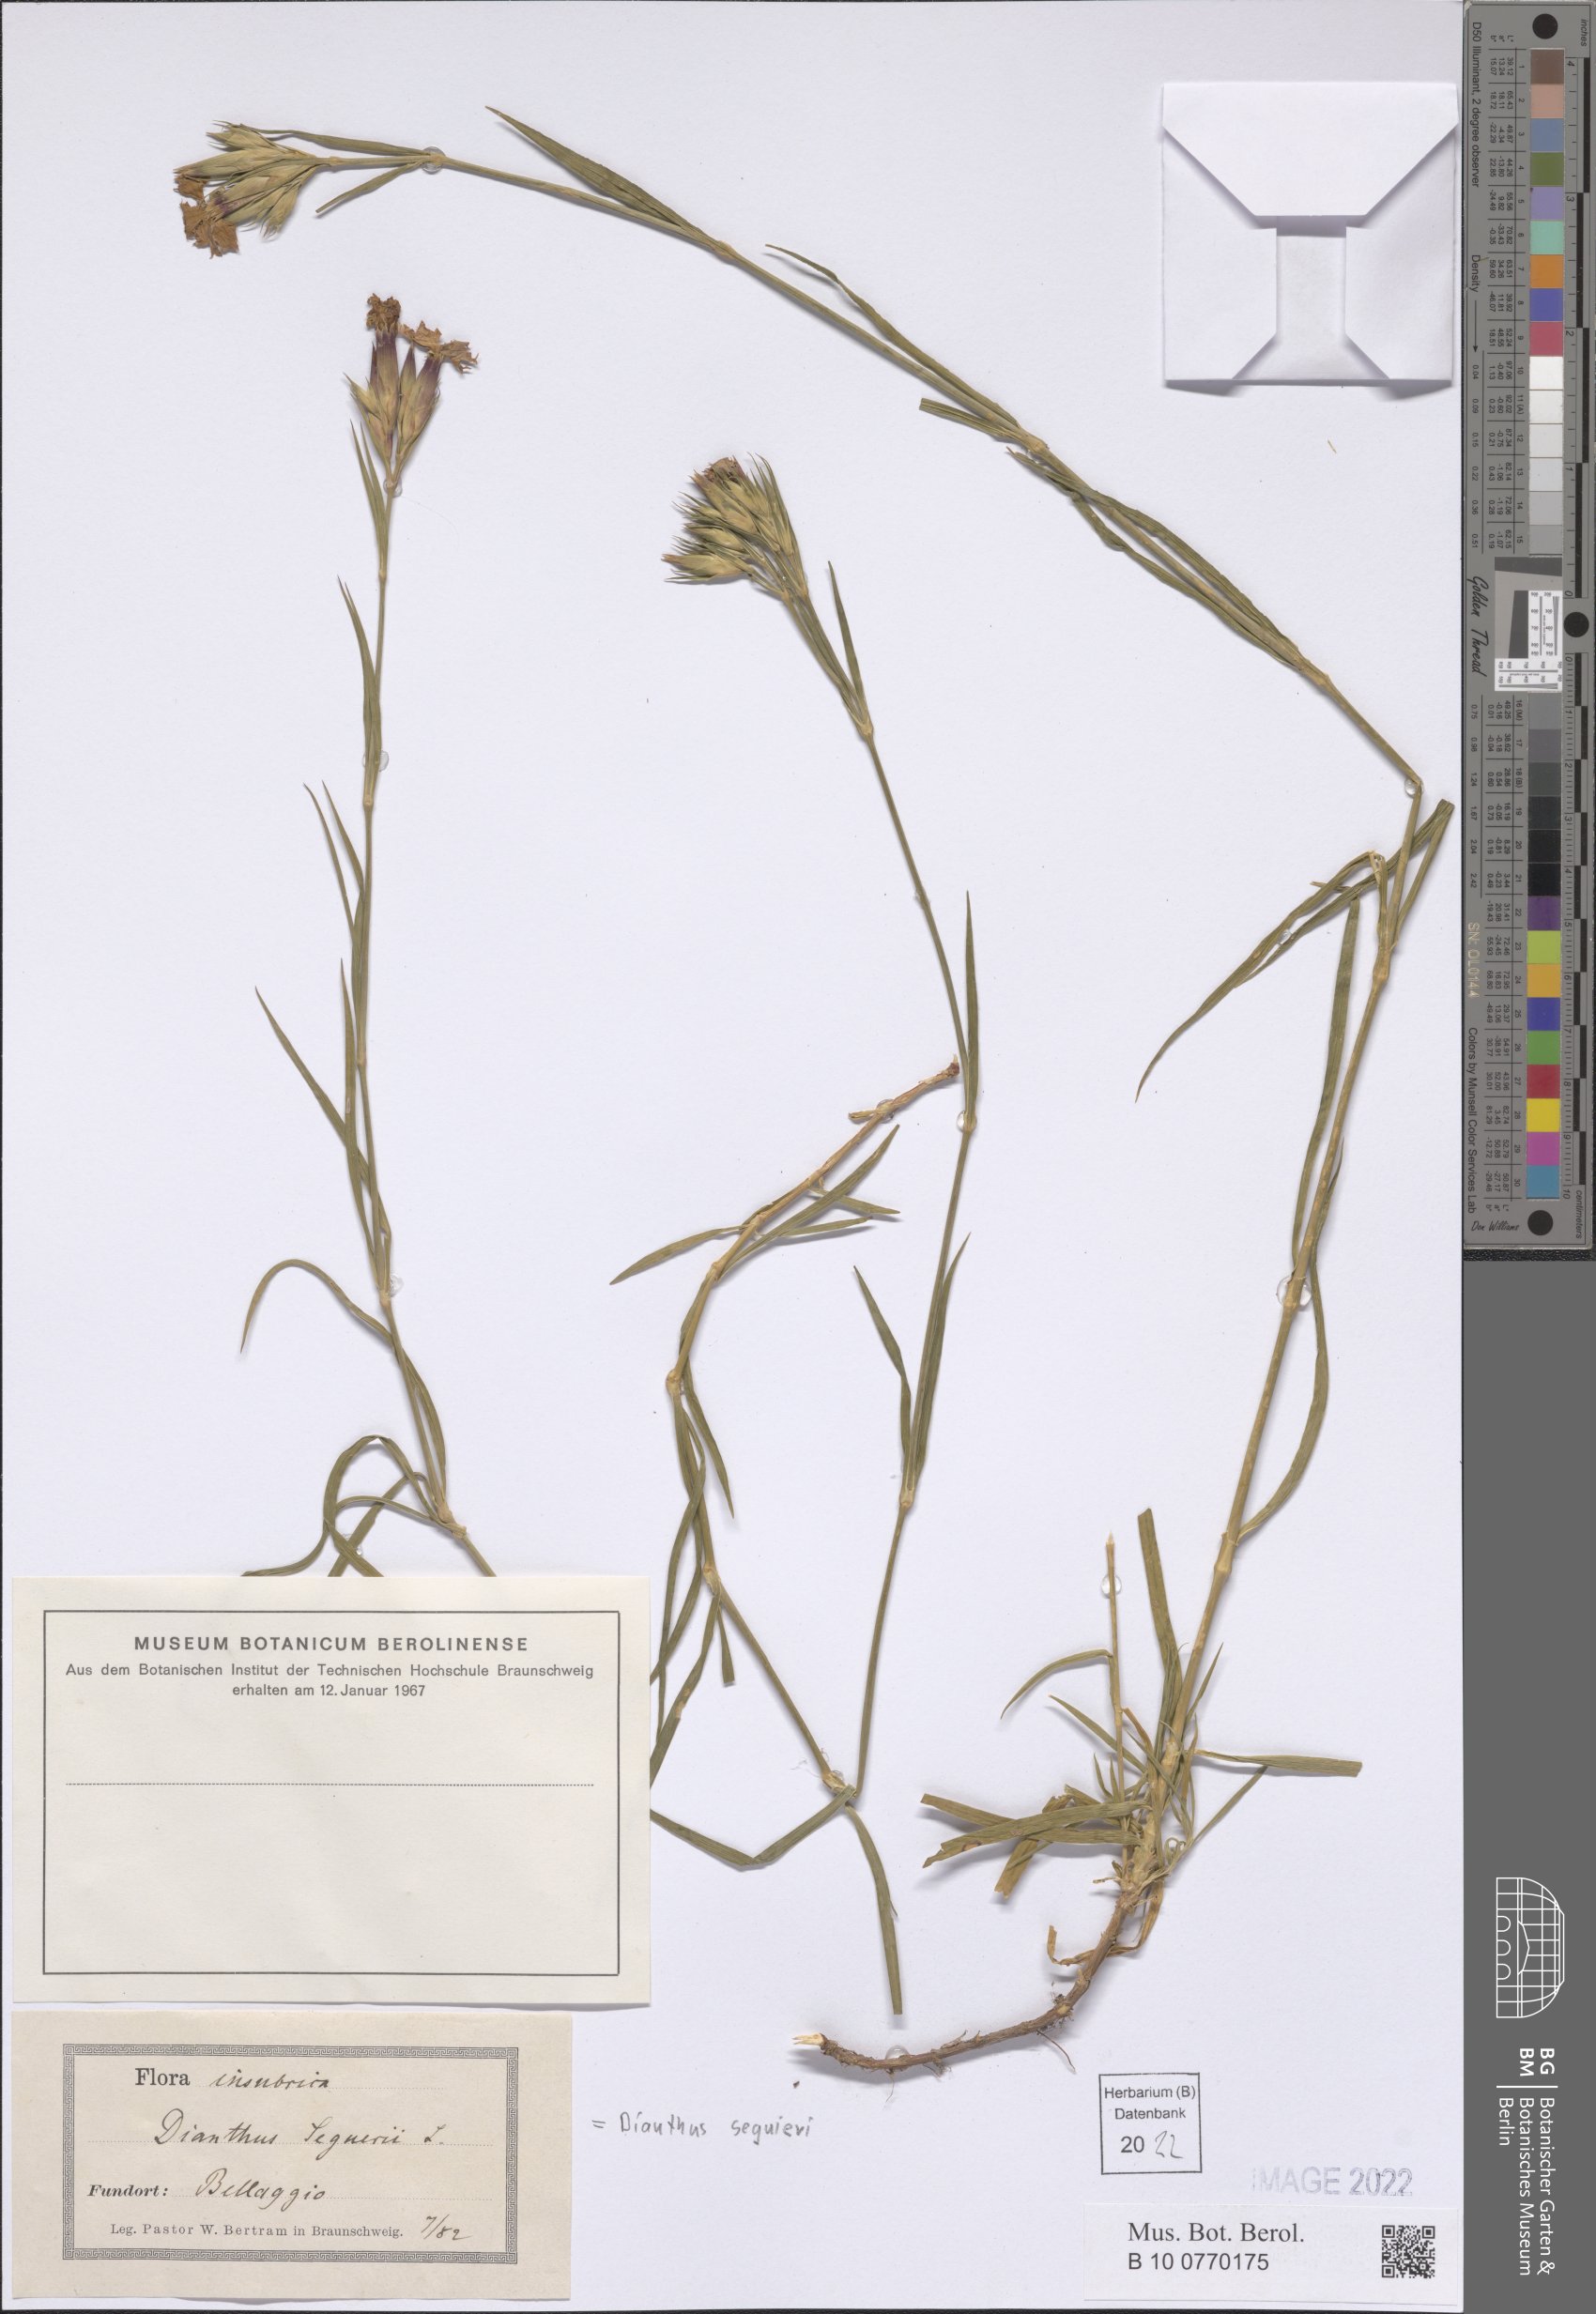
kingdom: Plantae
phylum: Tracheophyta
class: Magnoliopsida
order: Caryophyllales
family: Caryophyllaceae
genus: Dianthus
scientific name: Dianthus seguieri
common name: Ragged pink
